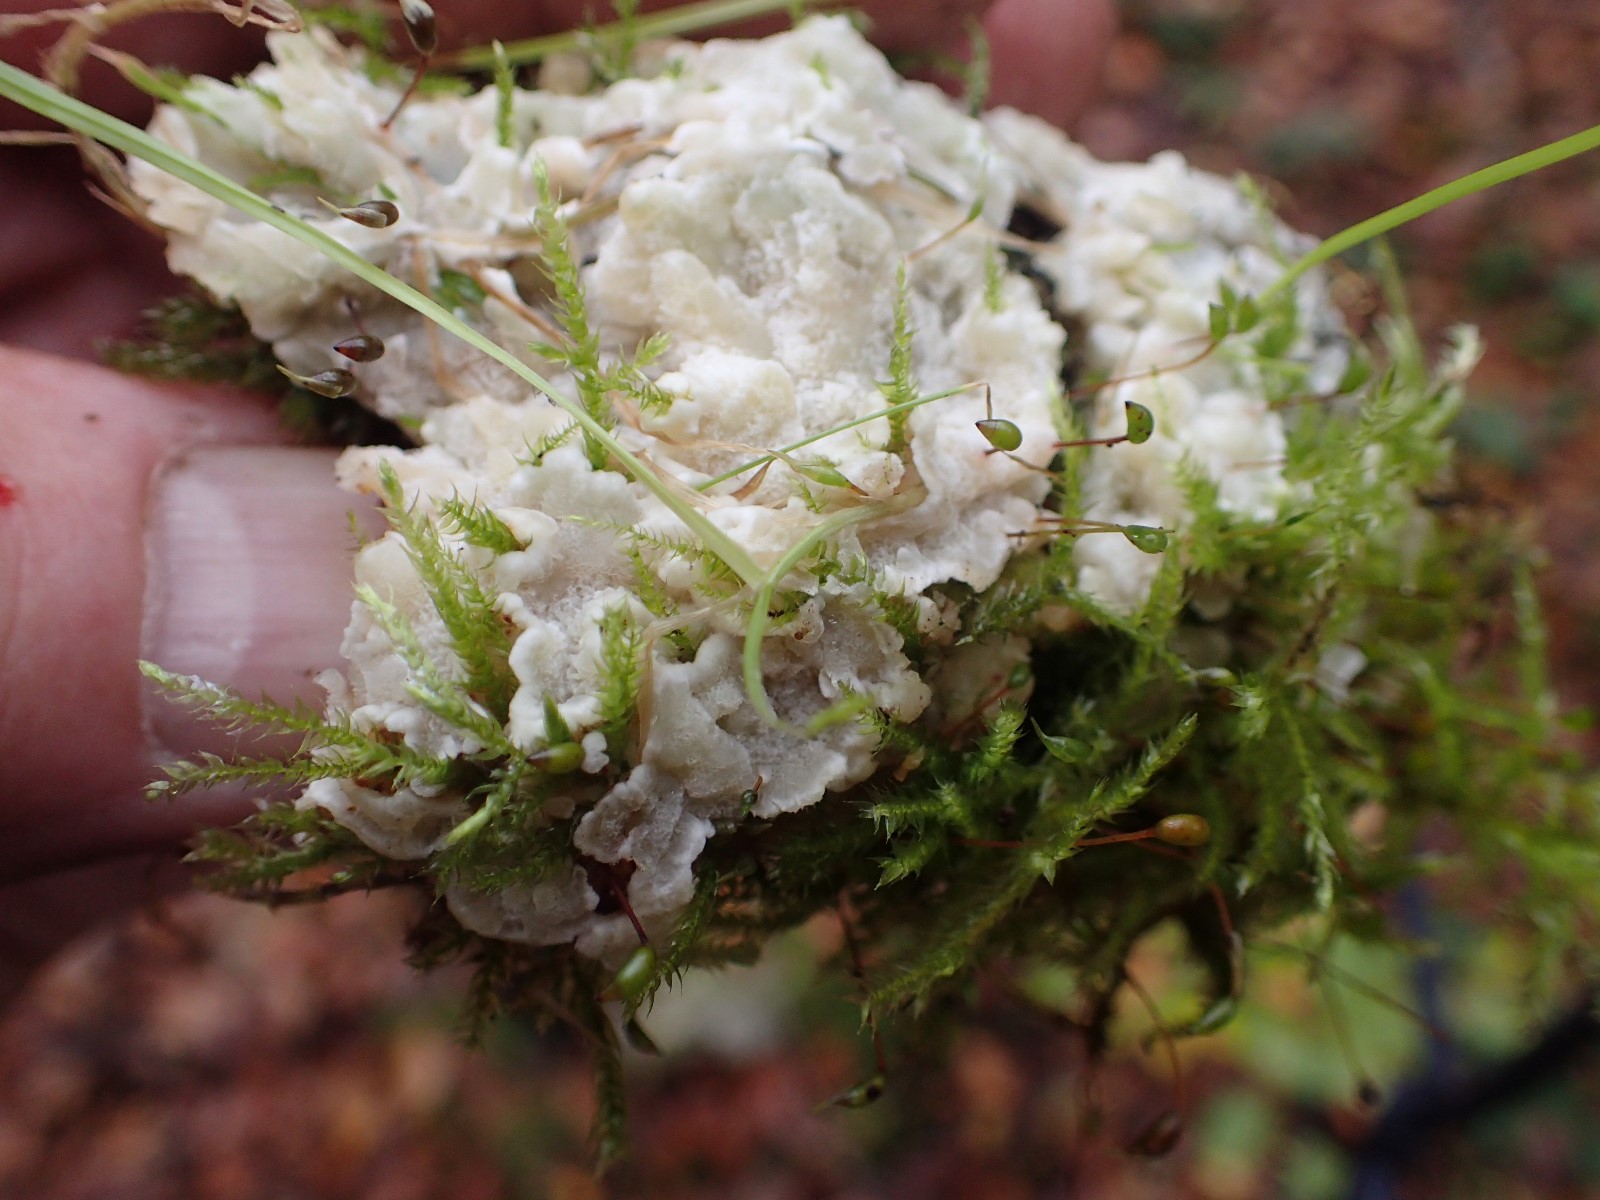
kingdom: Fungi
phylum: Basidiomycota
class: Agaricomycetes
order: Polyporales
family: Meruliaceae
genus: Physisporinus
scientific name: Physisporinus vitreus
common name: mastesvamp
